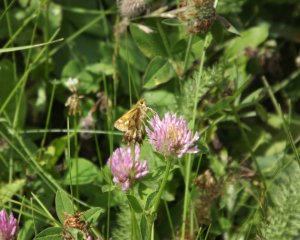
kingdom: Animalia
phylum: Arthropoda
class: Insecta
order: Lepidoptera
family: Hesperiidae
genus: Polites
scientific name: Polites coras
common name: Peck's Skipper
